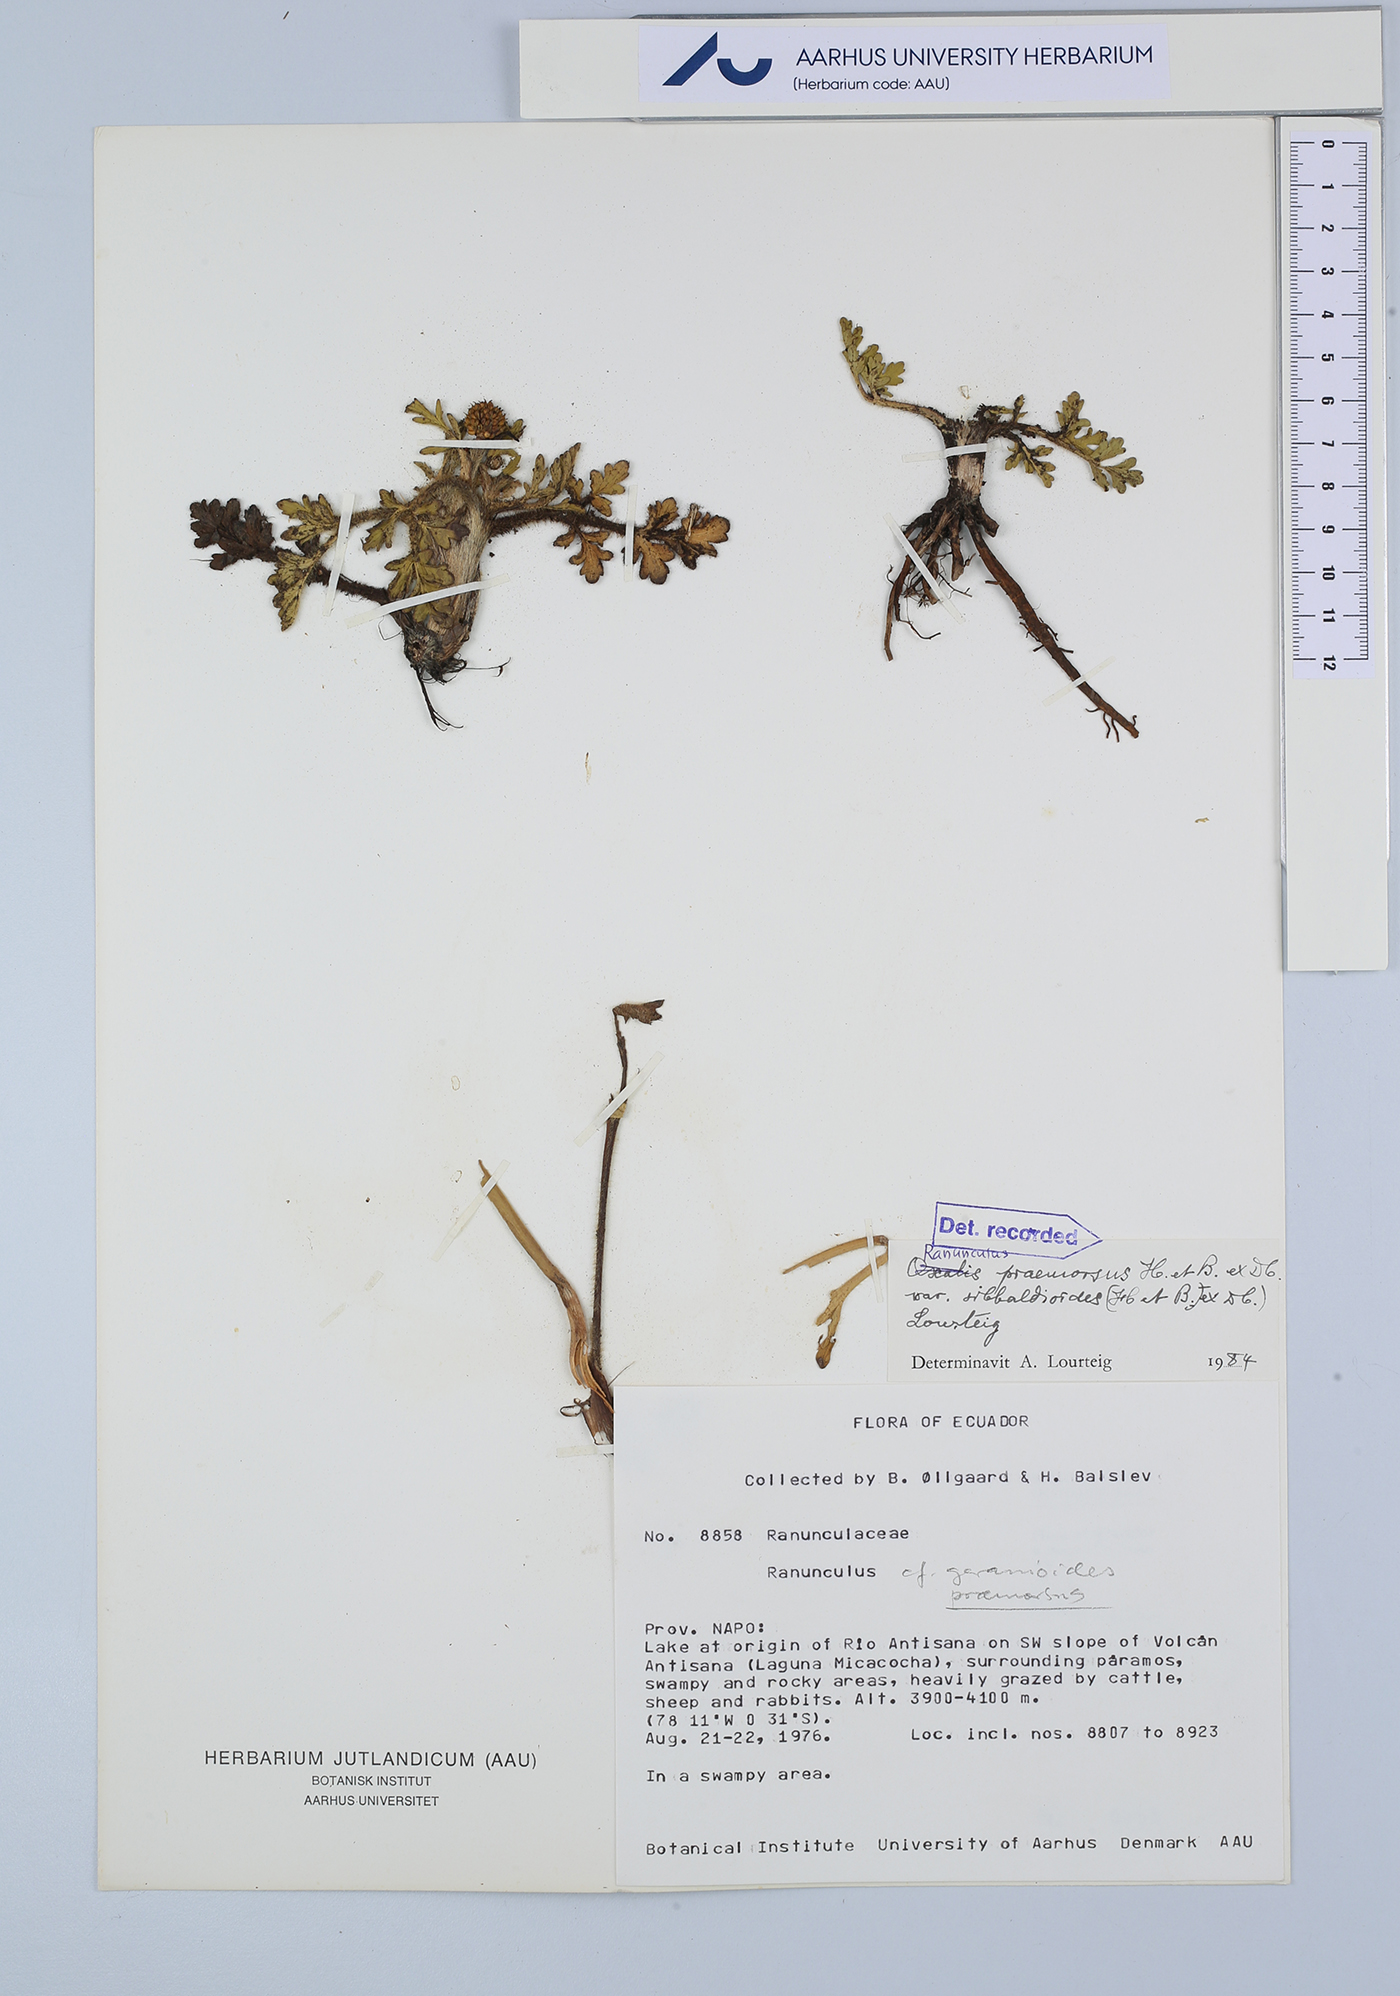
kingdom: Plantae
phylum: Tracheophyta
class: Magnoliopsida
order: Ranunculales
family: Ranunculaceae
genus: Ranunculus
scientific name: Ranunculus praemorsus
